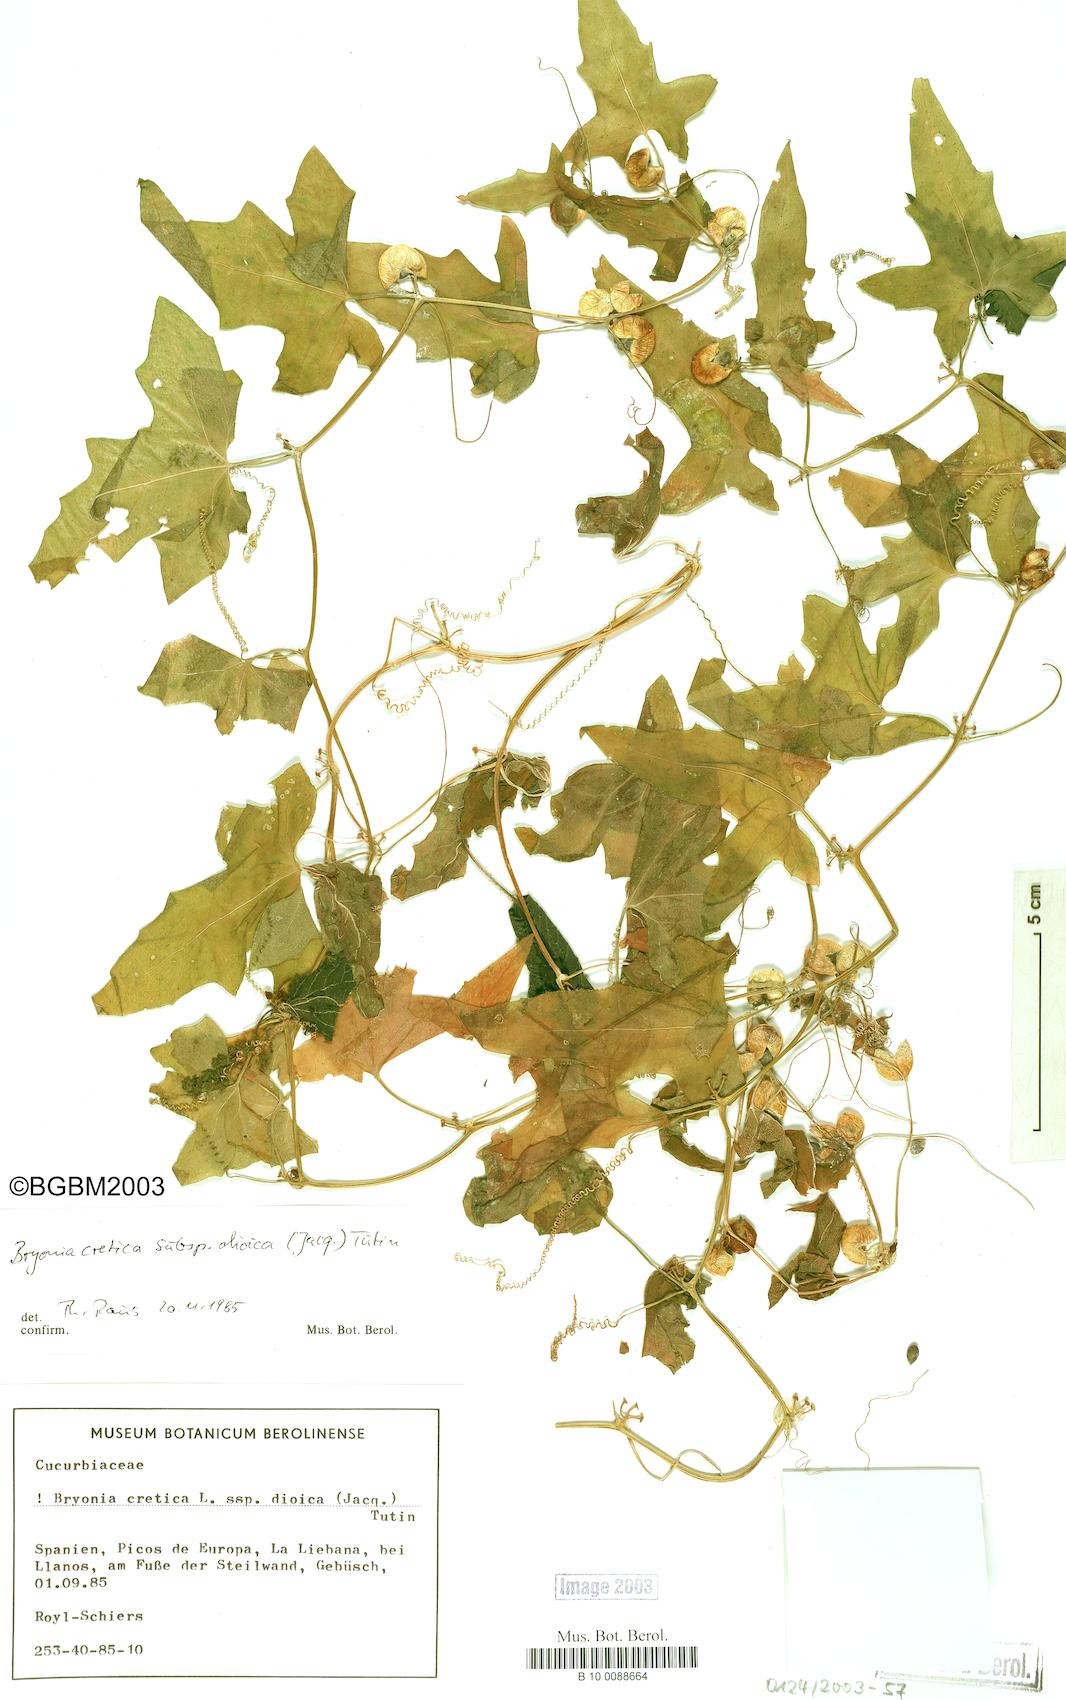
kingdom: Plantae
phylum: Tracheophyta
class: Magnoliopsida
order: Cucurbitales
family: Cucurbitaceae
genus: Bryonia
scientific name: Bryonia dioica
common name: White bryony
